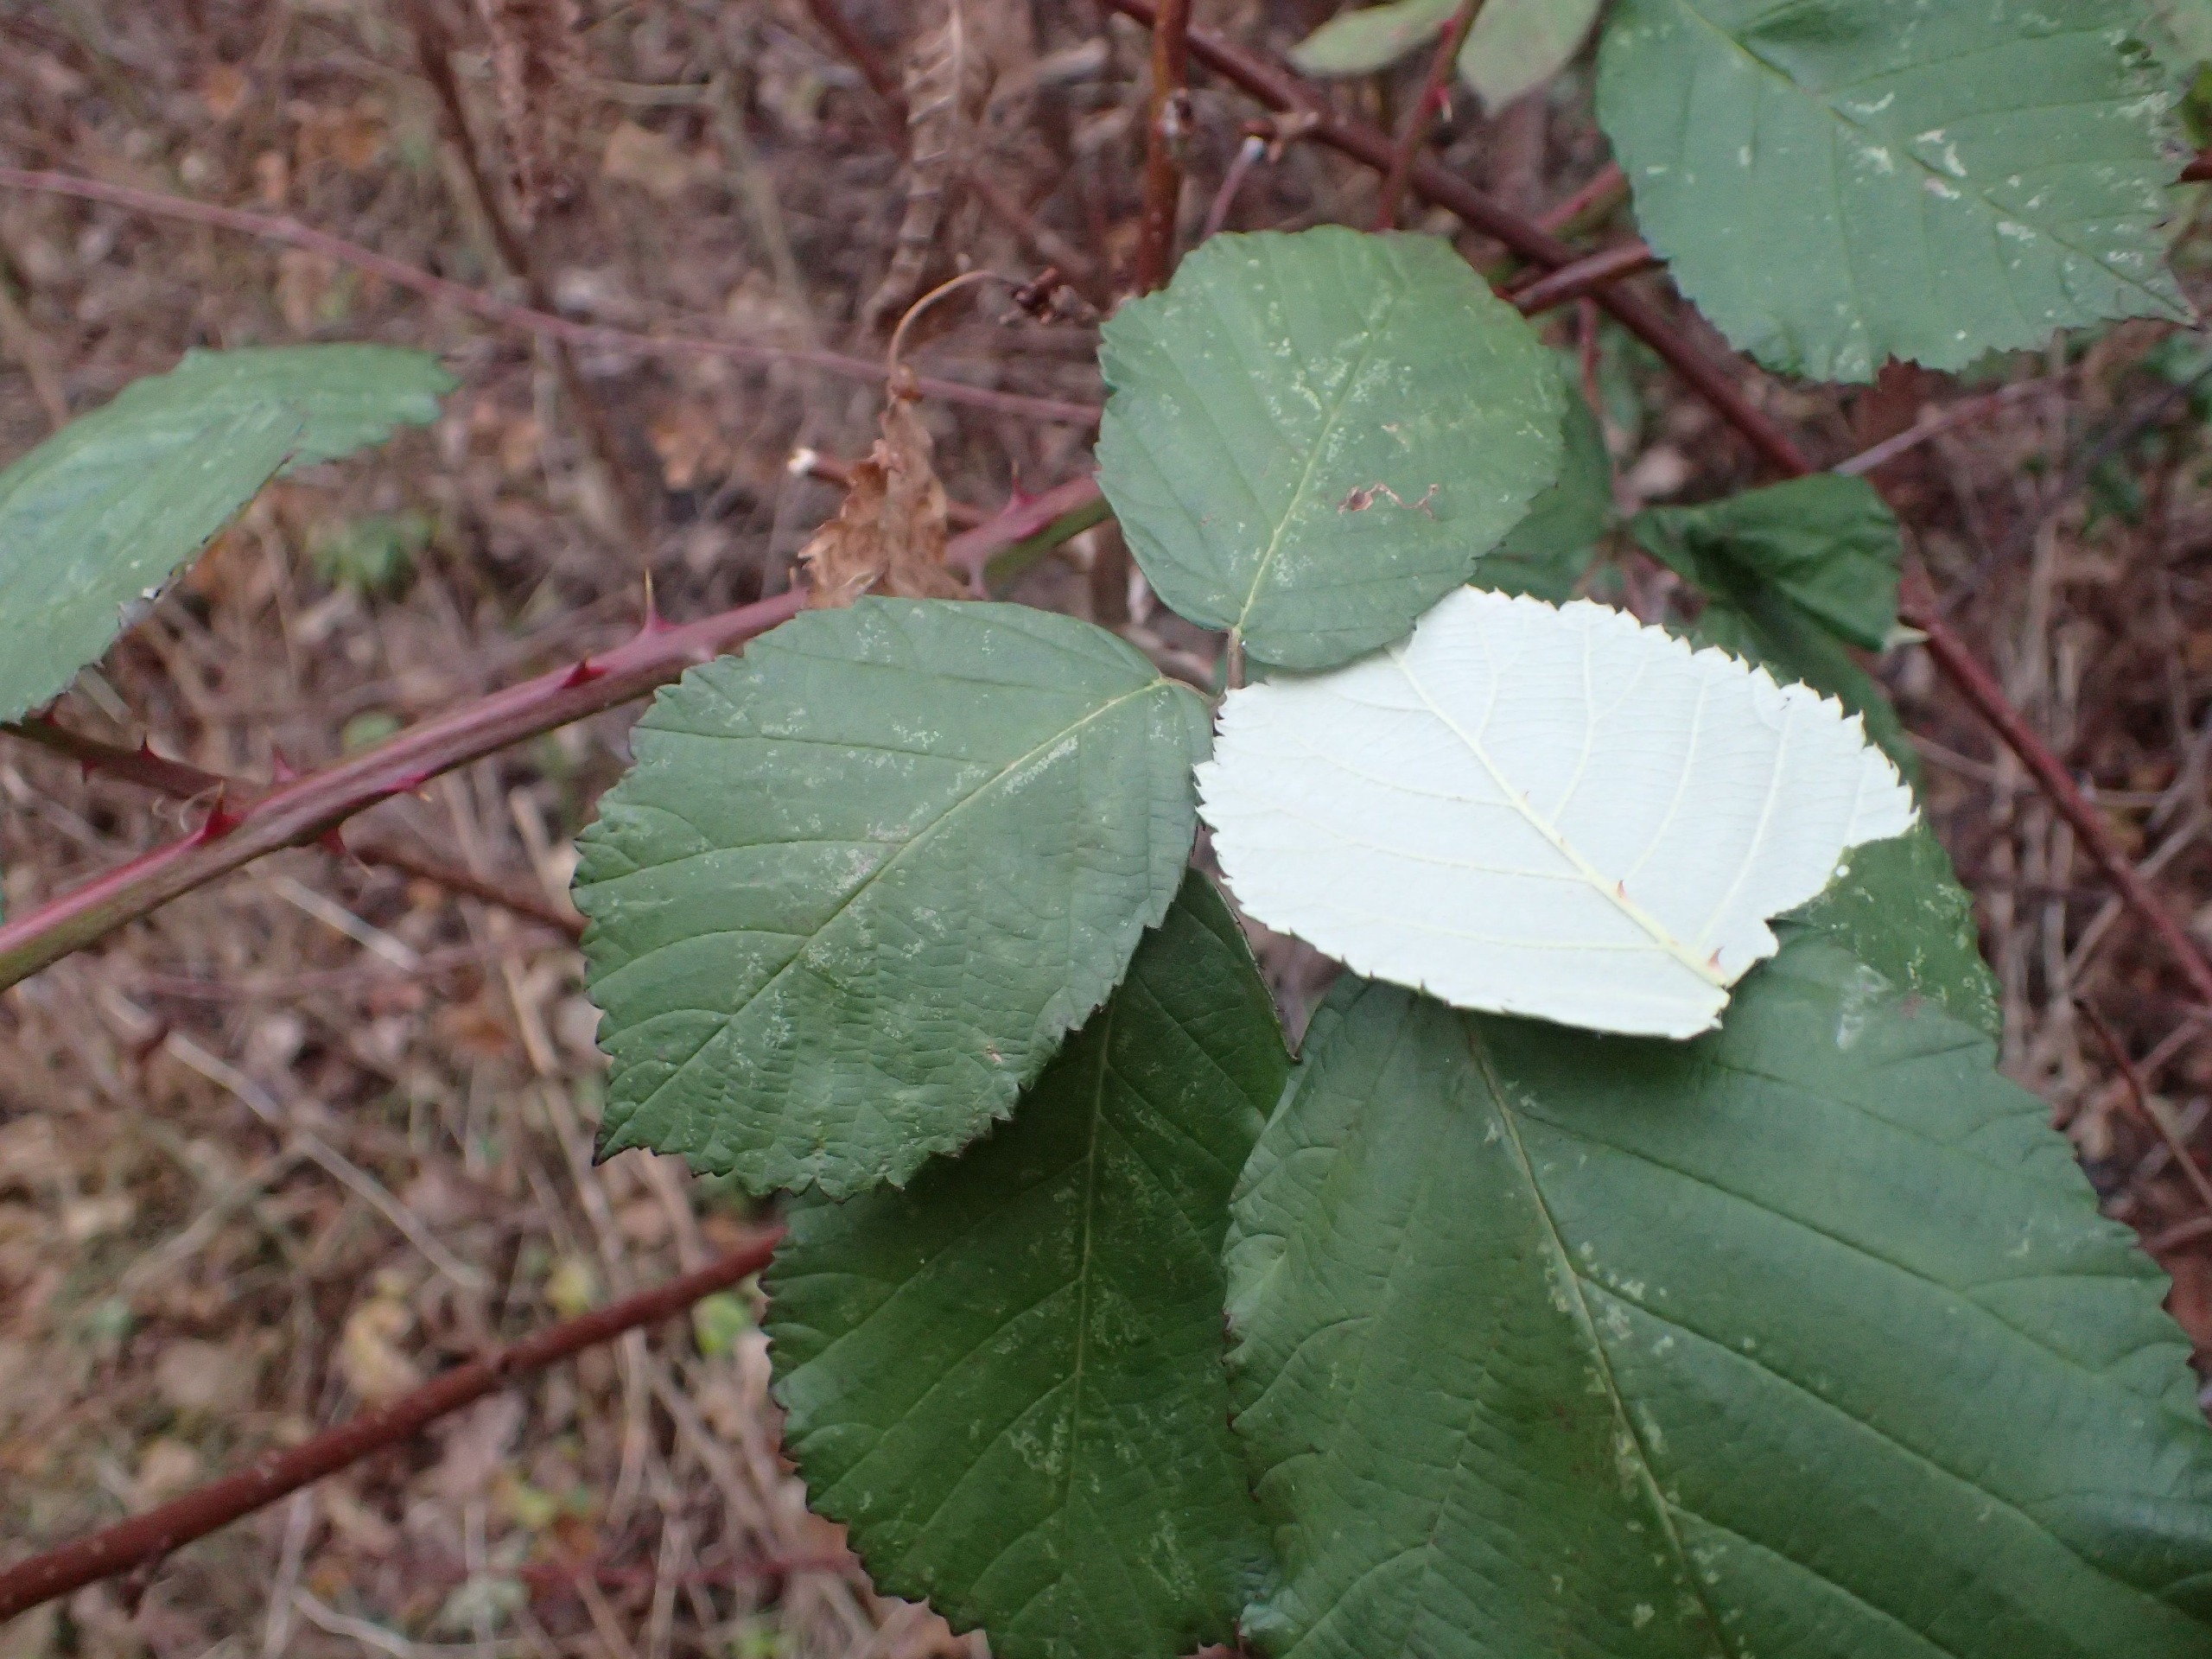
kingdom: Plantae
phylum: Tracheophyta
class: Magnoliopsida
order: Rosales
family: Rosaceae
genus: Rubus
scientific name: Rubus armeniacus
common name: Armensk brombær
